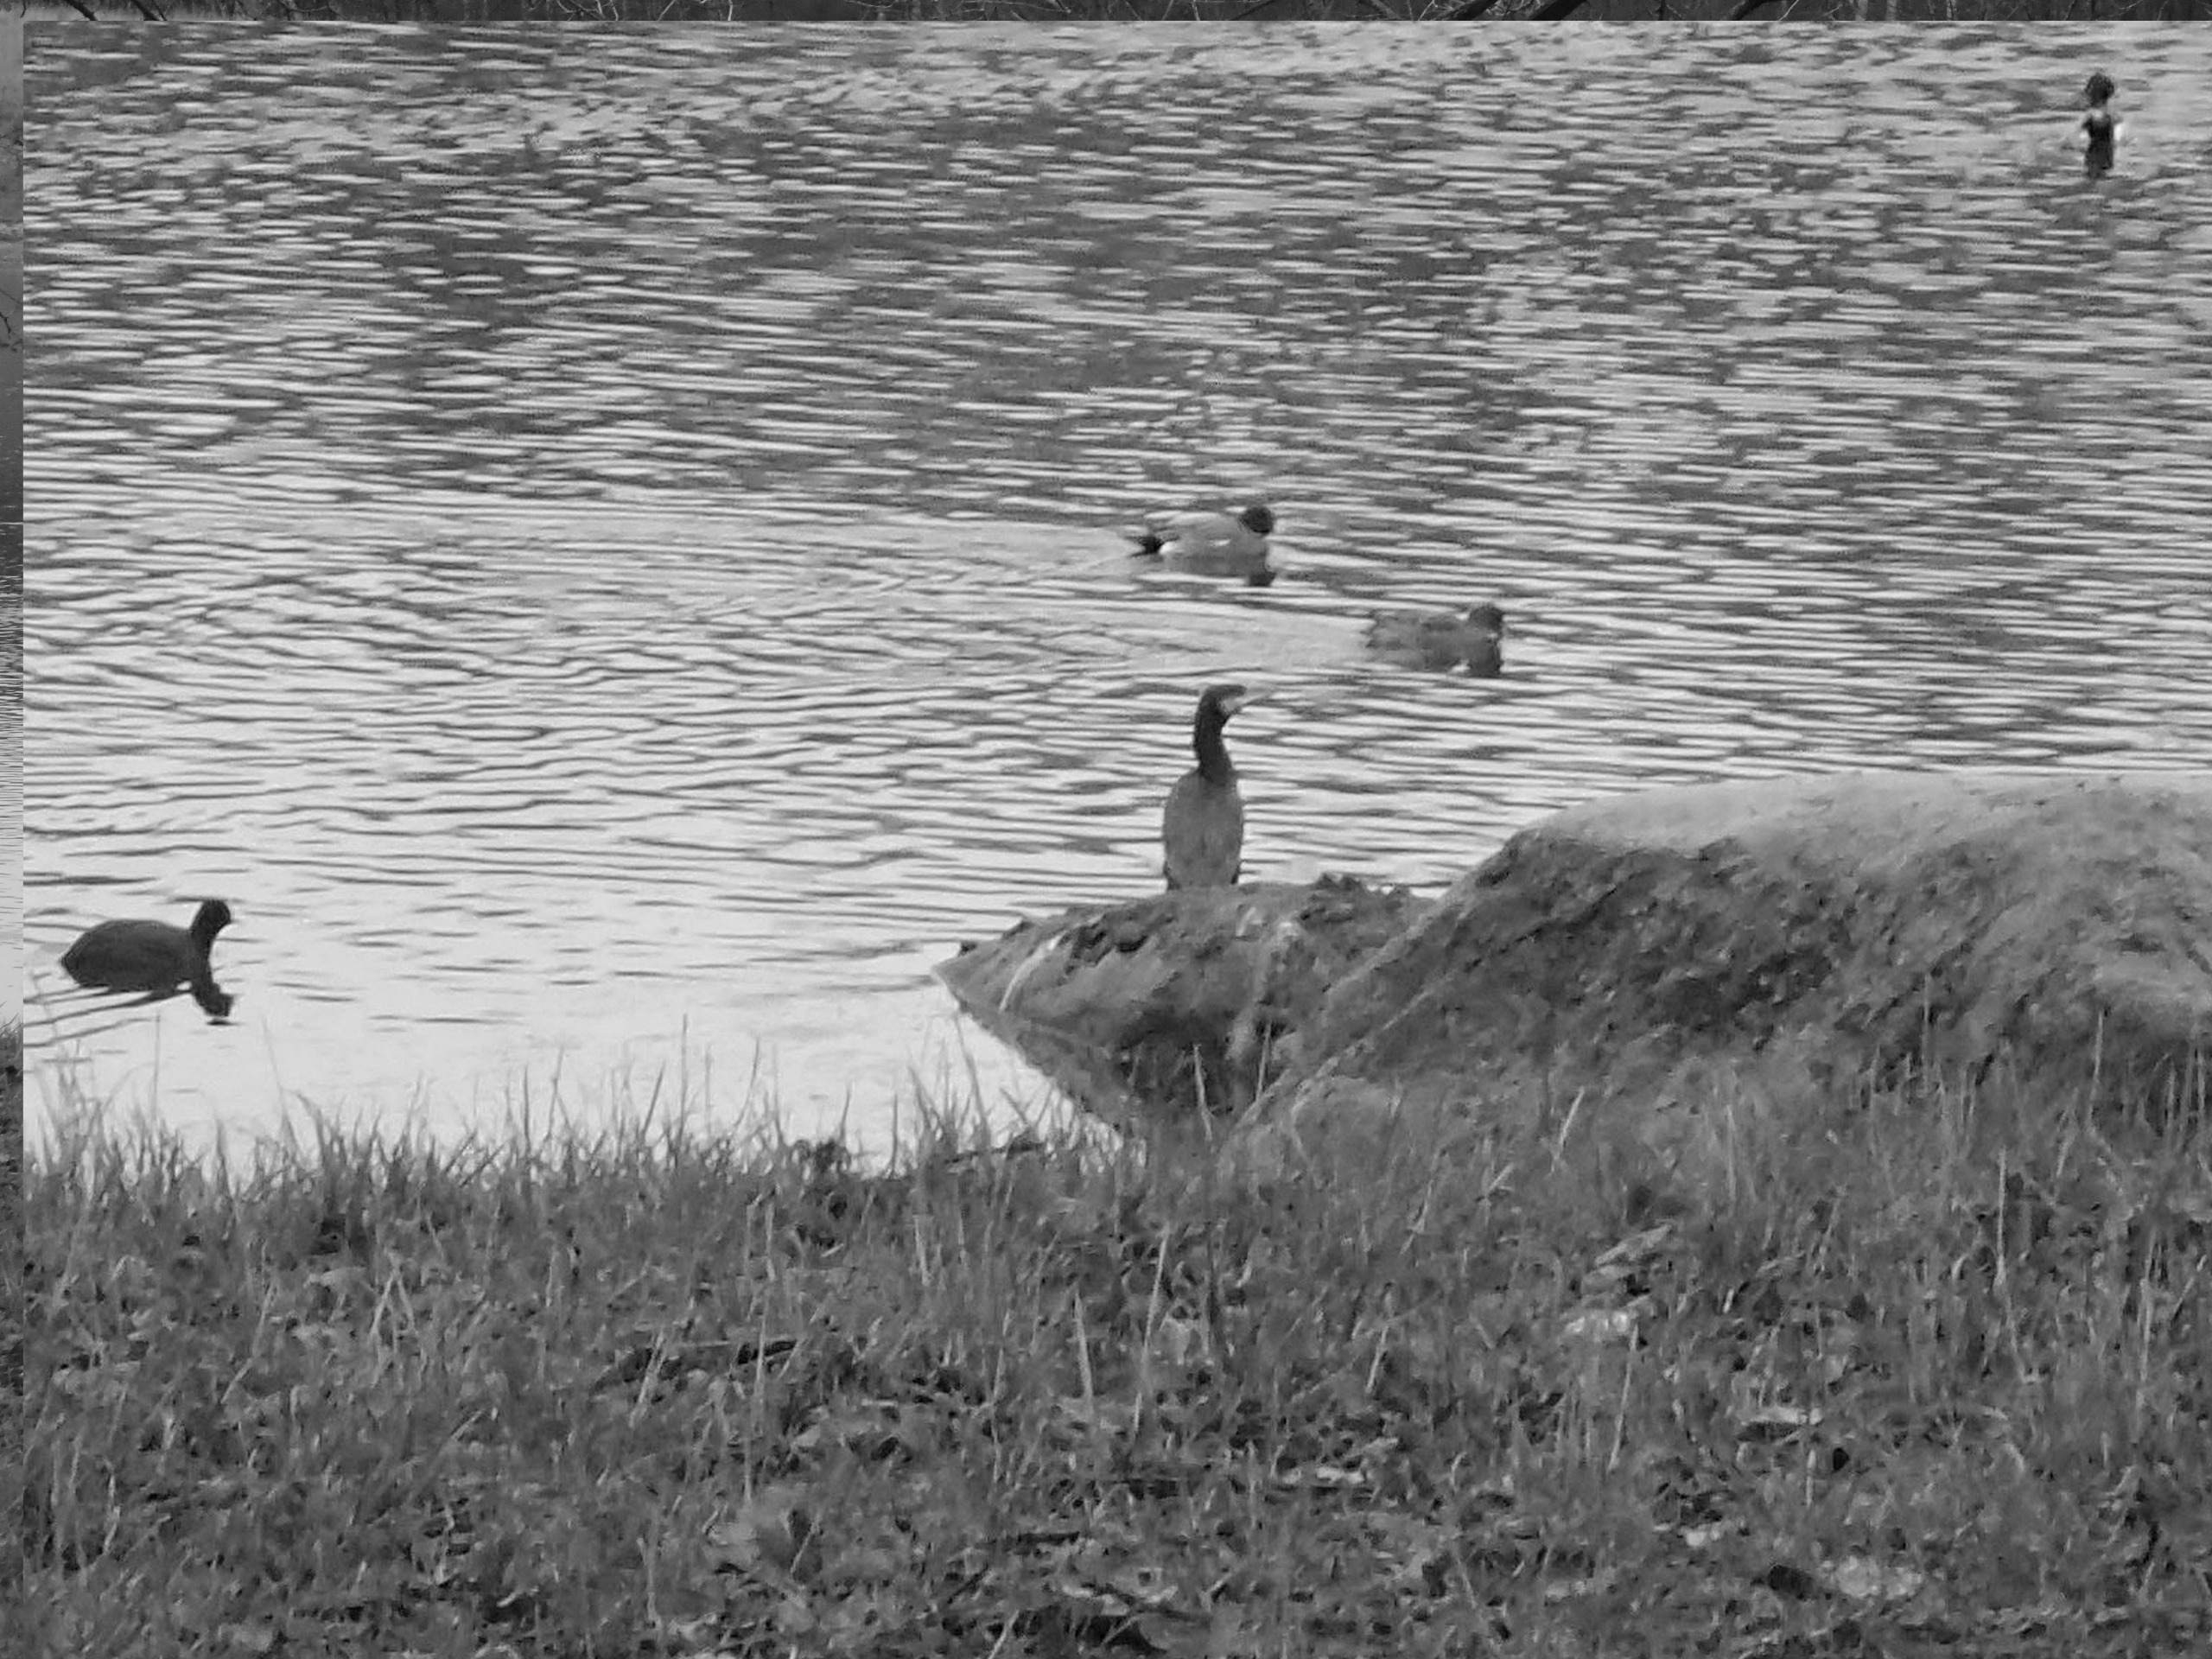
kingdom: Animalia
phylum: Chordata
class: Aves
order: Suliformes
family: Phalacrocoracidae
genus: Phalacrocorax
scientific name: Phalacrocorax carbo
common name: Skarv
